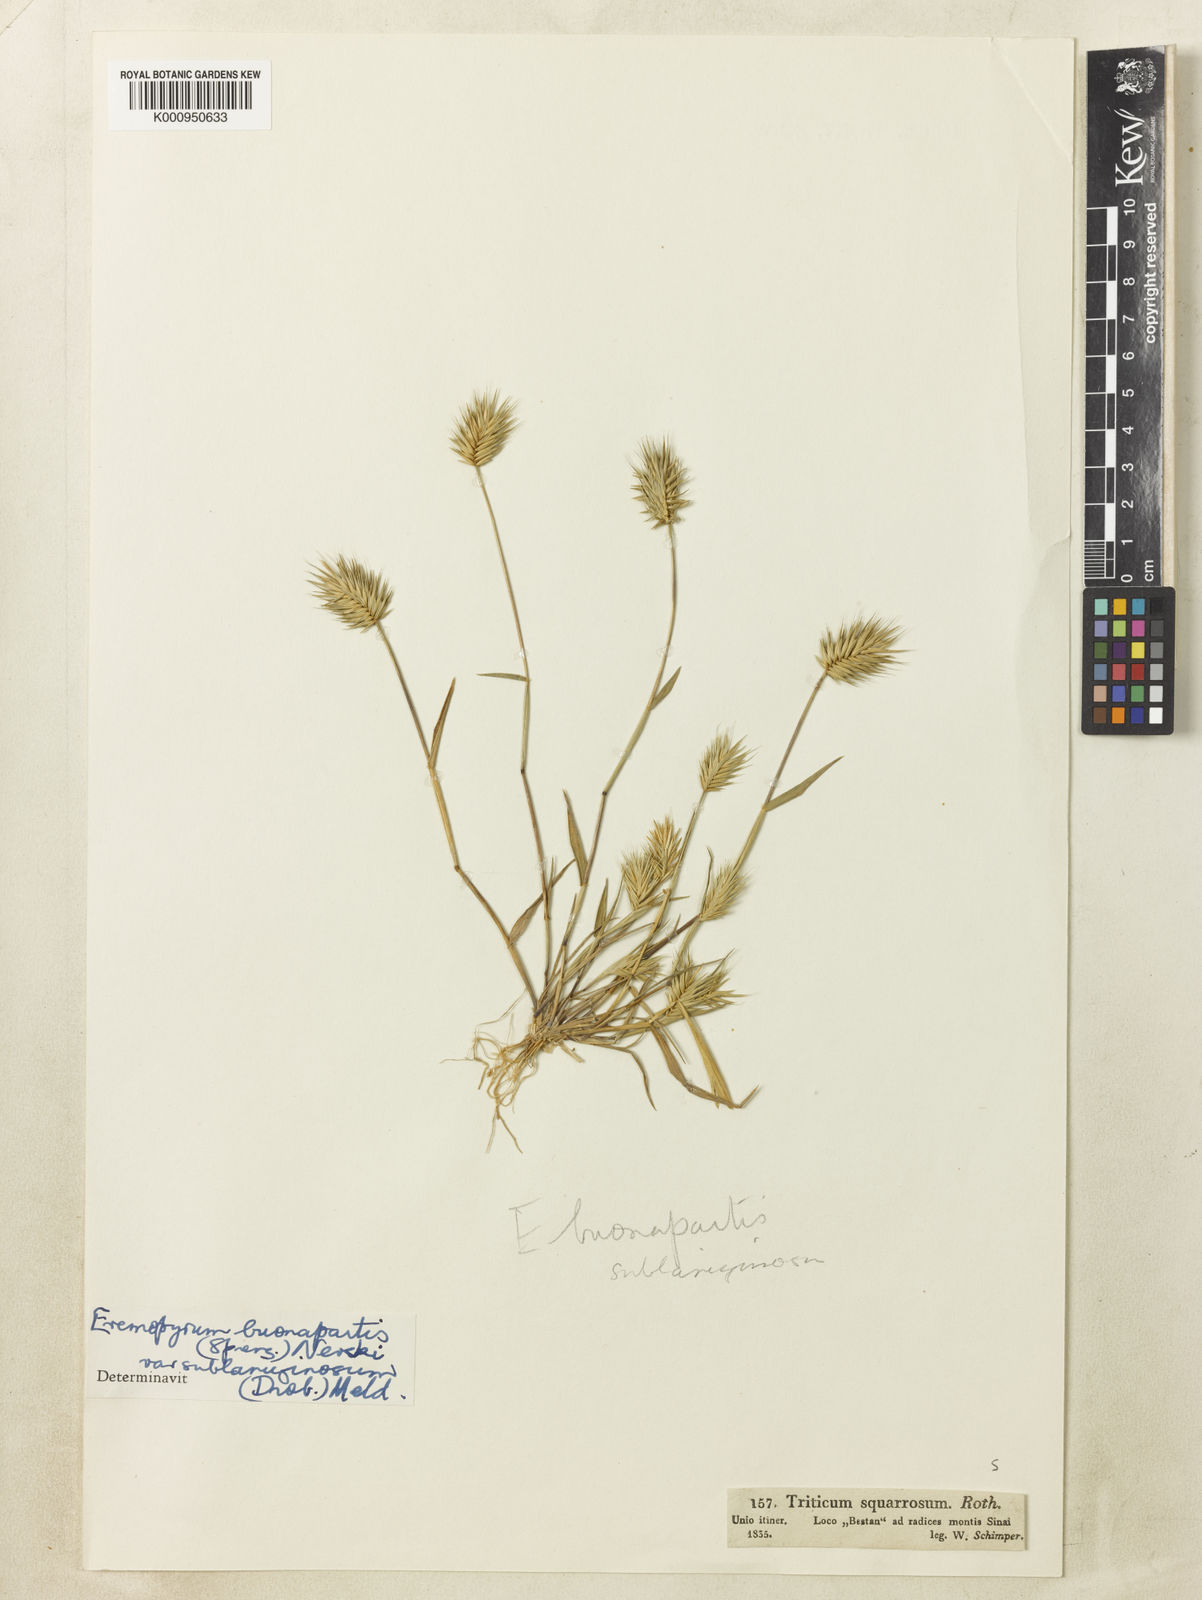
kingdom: Plantae
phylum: Tracheophyta
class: Liliopsida
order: Poales
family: Poaceae
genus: Eremopyrum
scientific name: Eremopyrum bonaepartis
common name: Tapertip false wheatgrass
